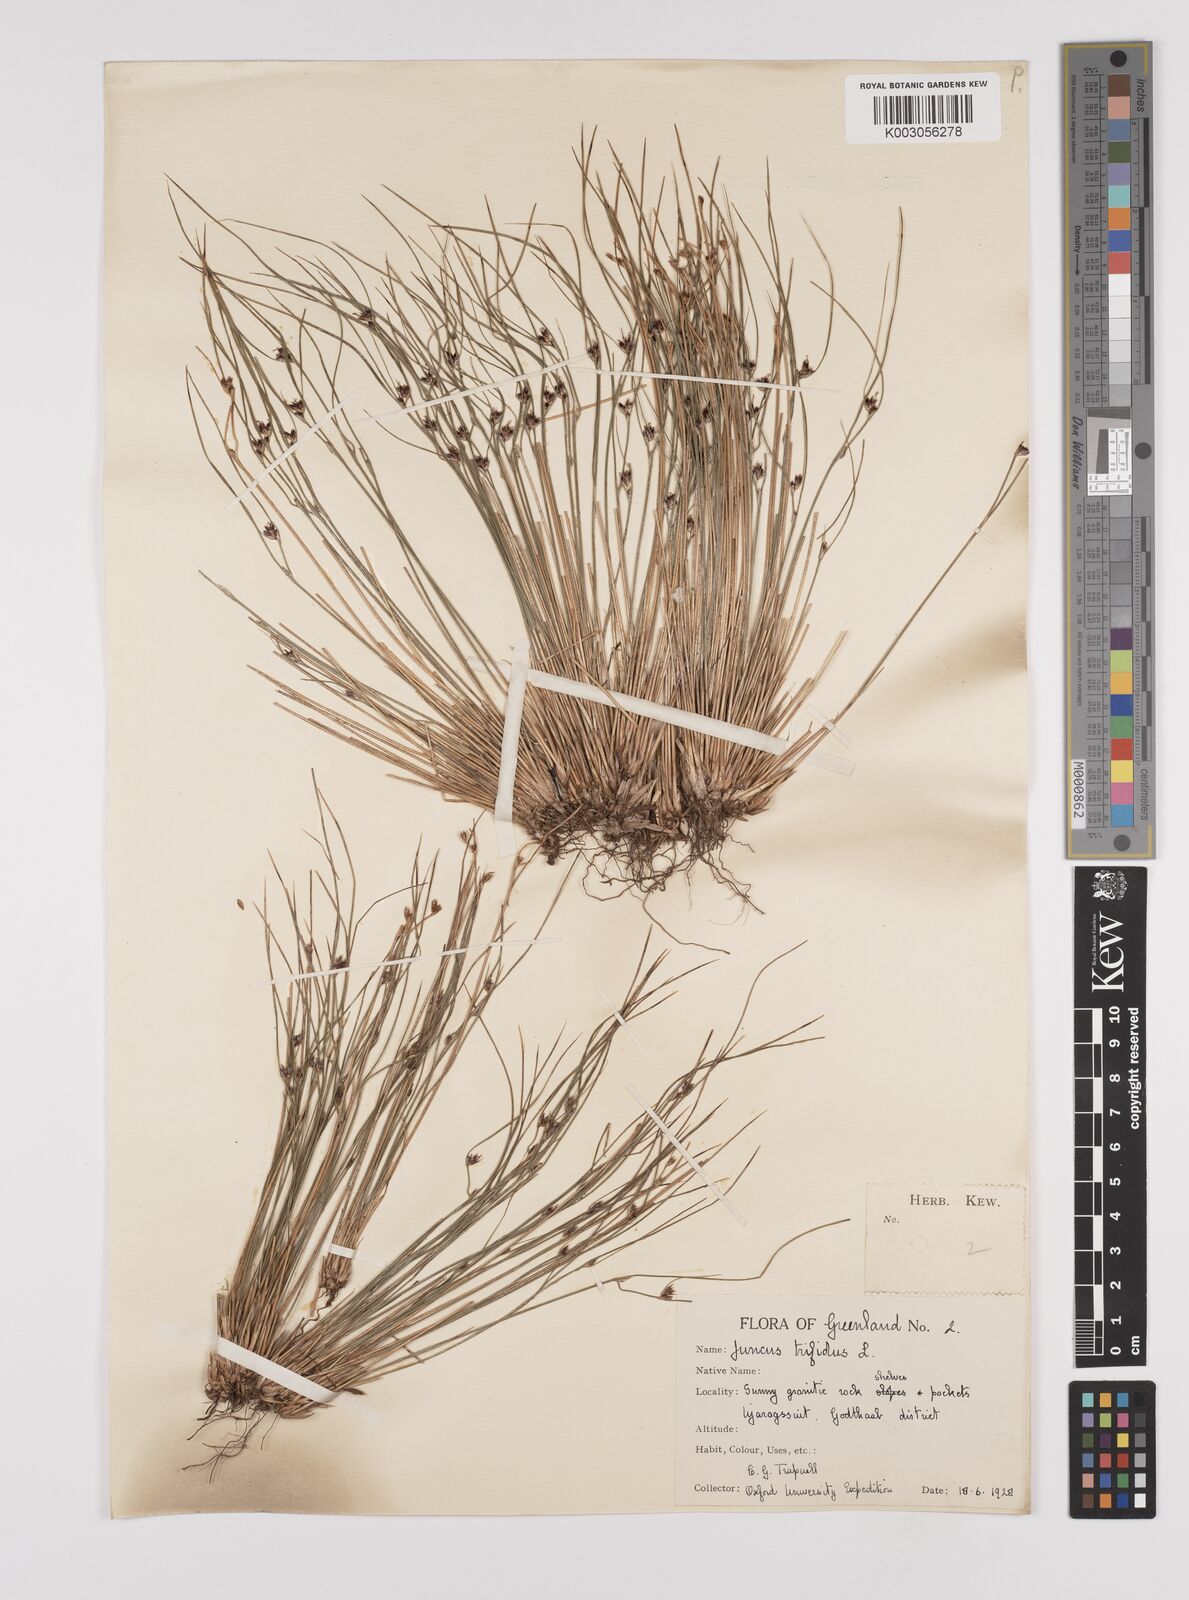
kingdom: Plantae
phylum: Tracheophyta
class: Liliopsida
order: Poales
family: Juncaceae
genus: Oreojuncus
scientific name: Oreojuncus trifidus
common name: Highland rush
